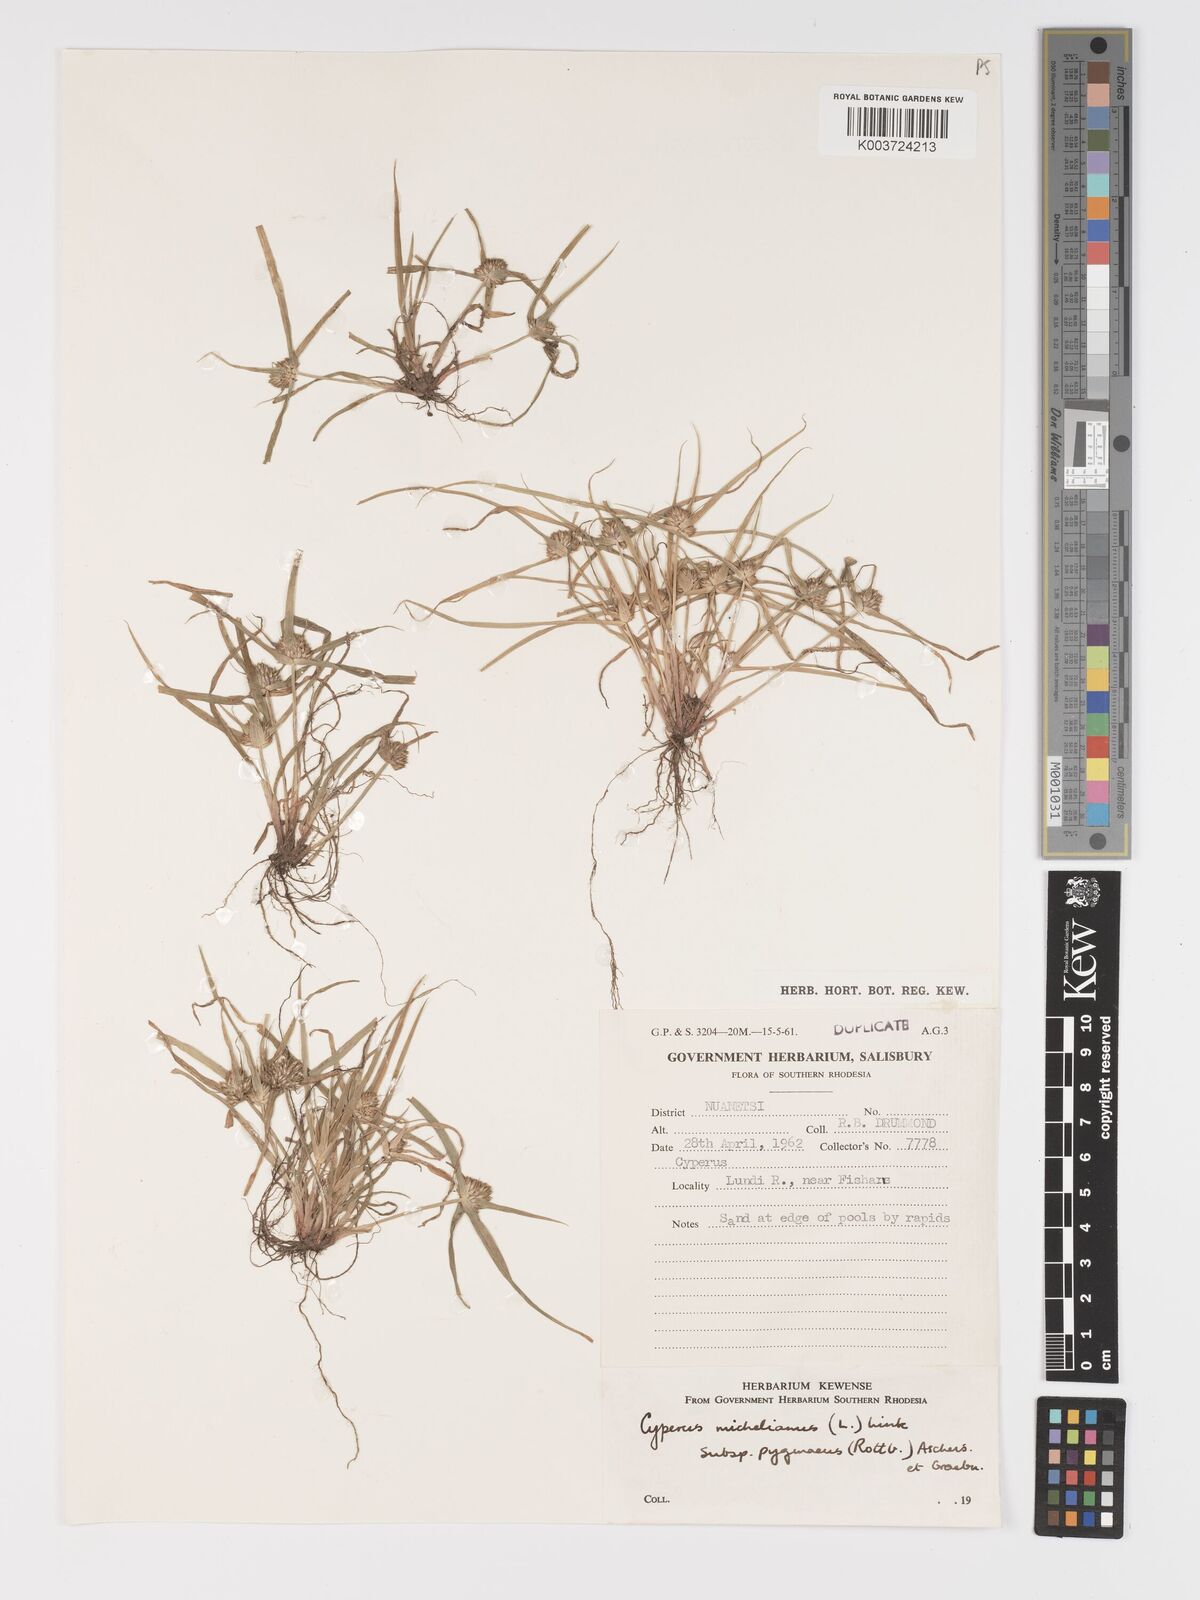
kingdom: Plantae
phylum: Tracheophyta
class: Liliopsida
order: Poales
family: Cyperaceae
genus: Cyperus
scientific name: Cyperus michelianus
